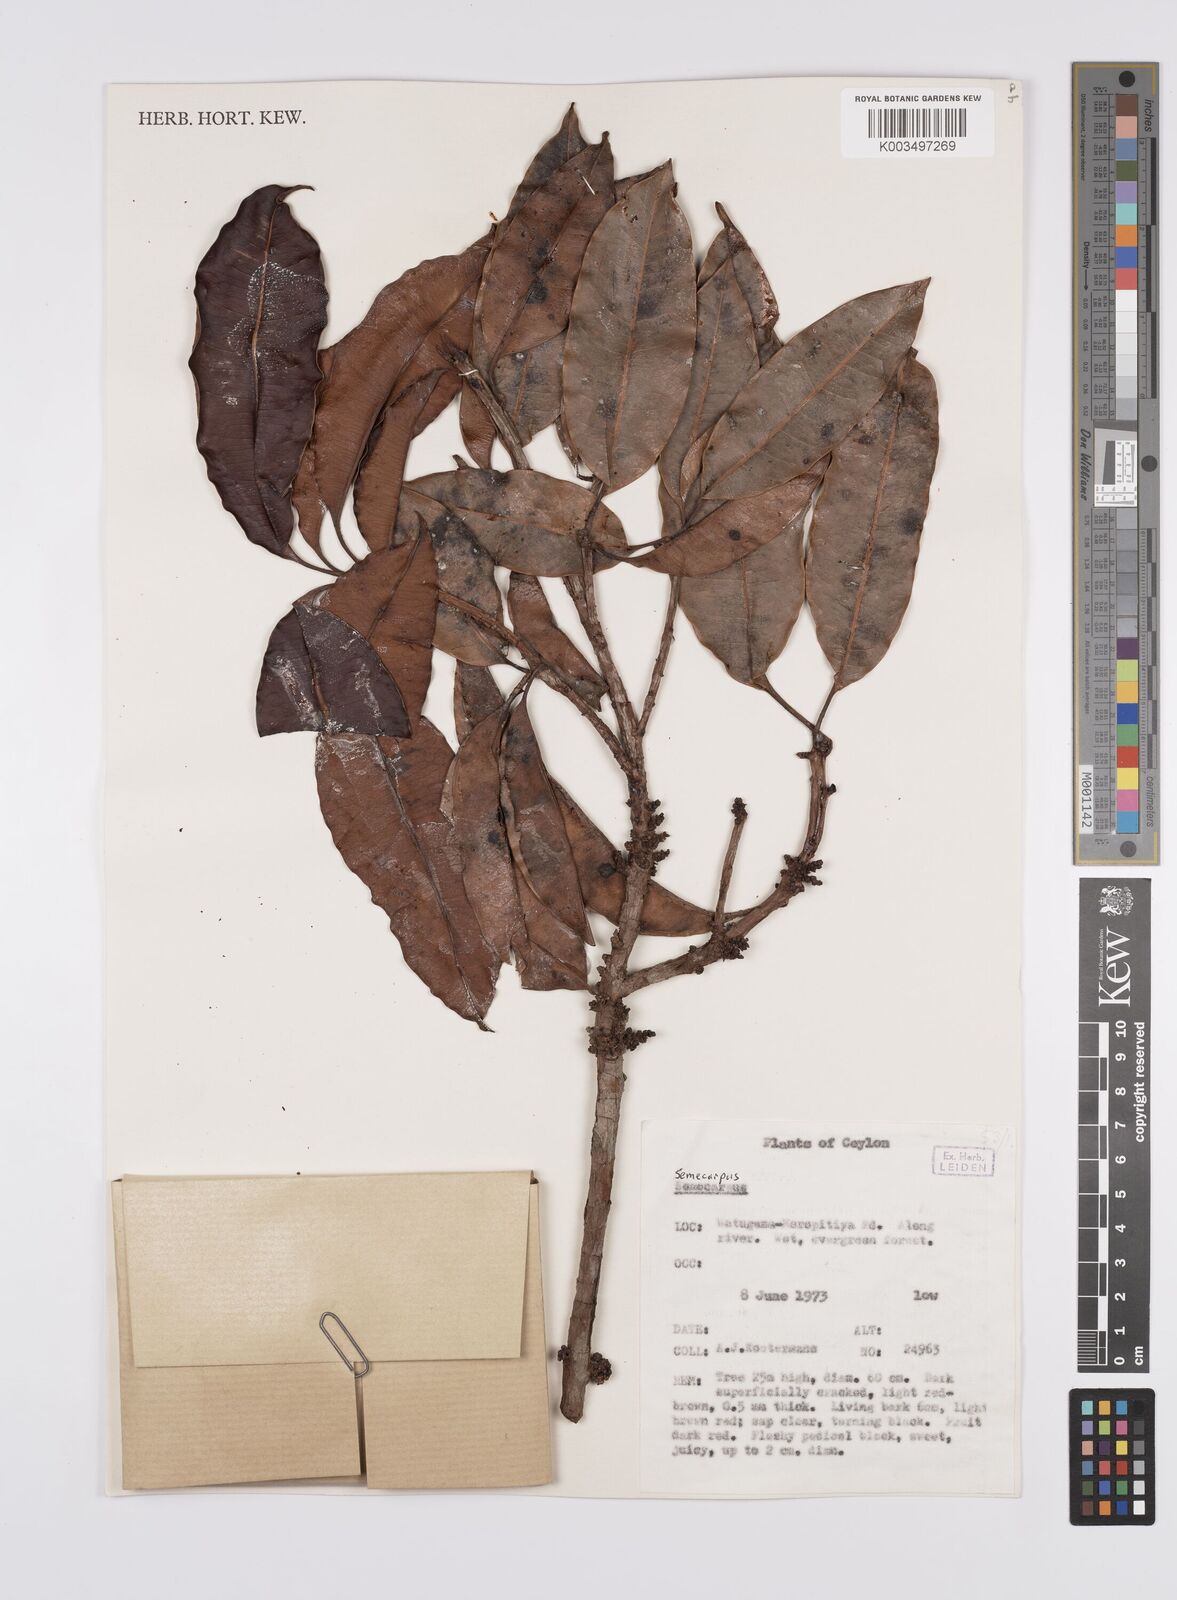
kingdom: Plantae
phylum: Tracheophyta
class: Magnoliopsida
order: Sapindales
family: Anacardiaceae
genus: Semecarpus
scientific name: Semecarpus
